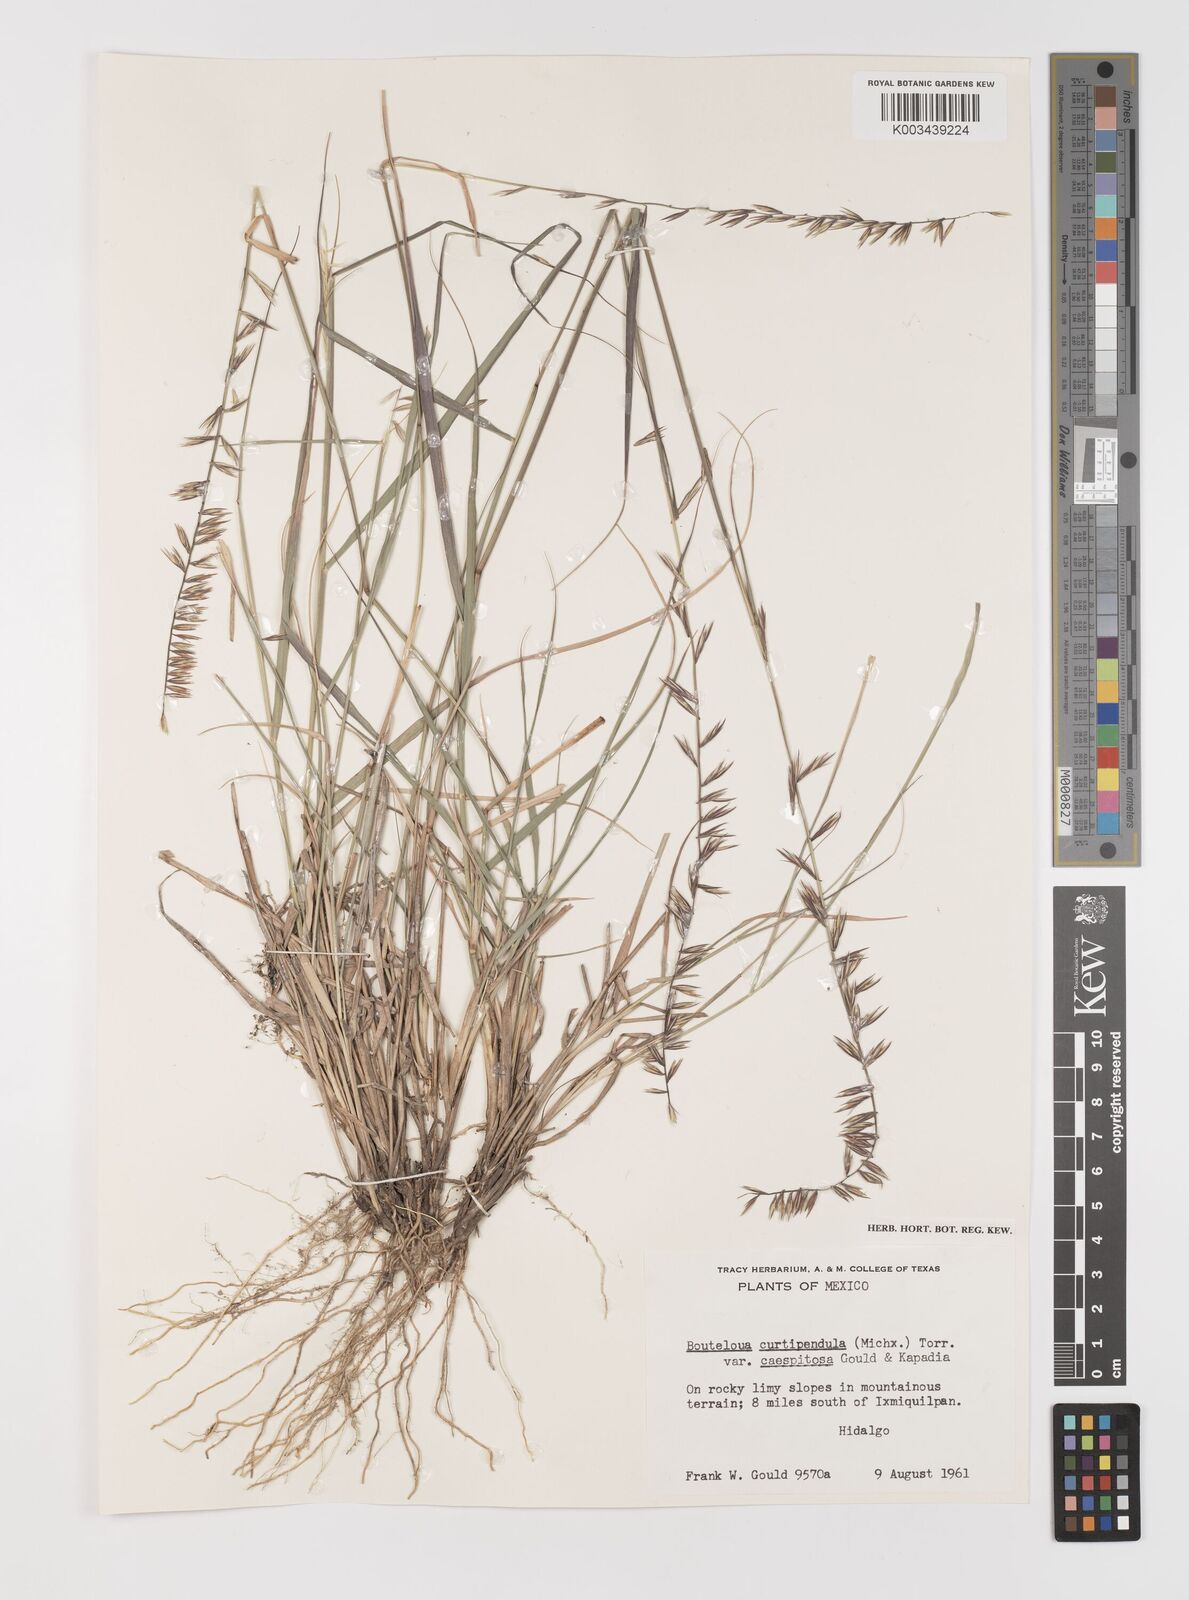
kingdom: Plantae
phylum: Tracheophyta
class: Liliopsida
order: Poales
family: Poaceae
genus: Bouteloua
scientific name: Bouteloua curtipendula
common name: Side-oats grama
